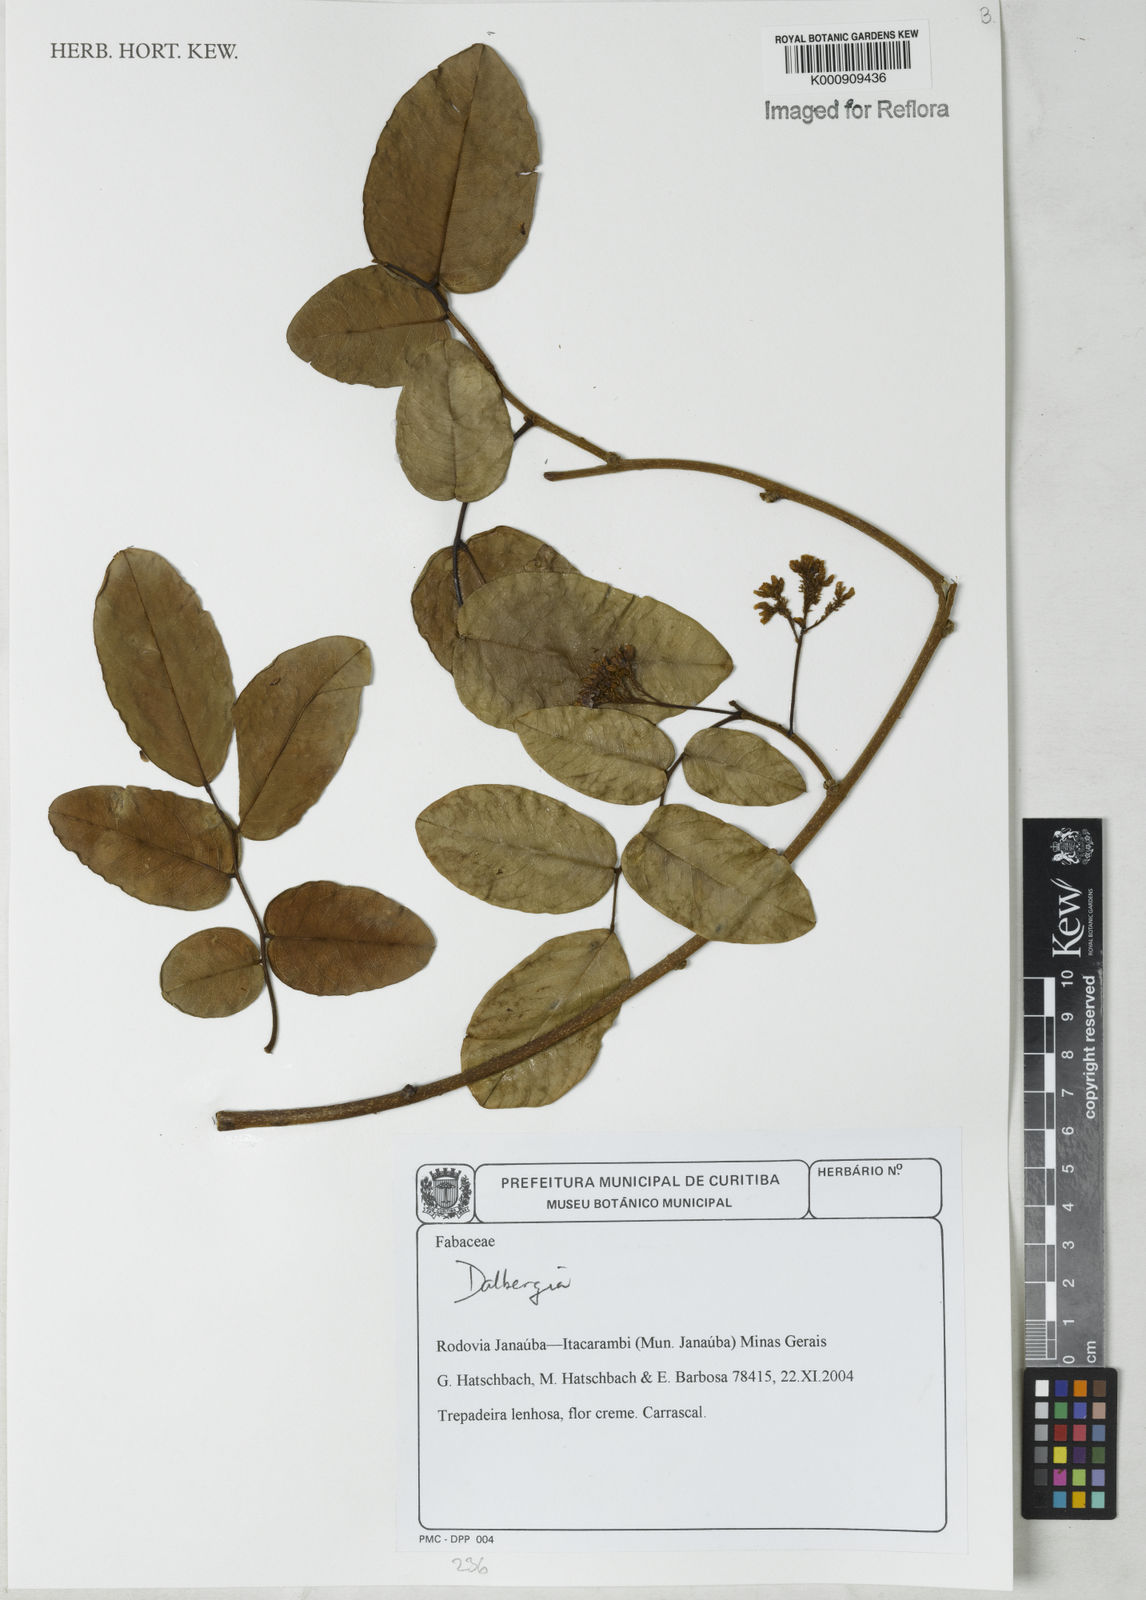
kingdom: Plantae
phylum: Tracheophyta
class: Magnoliopsida
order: Fabales
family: Fabaceae
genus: Dalbergia
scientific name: Dalbergia
